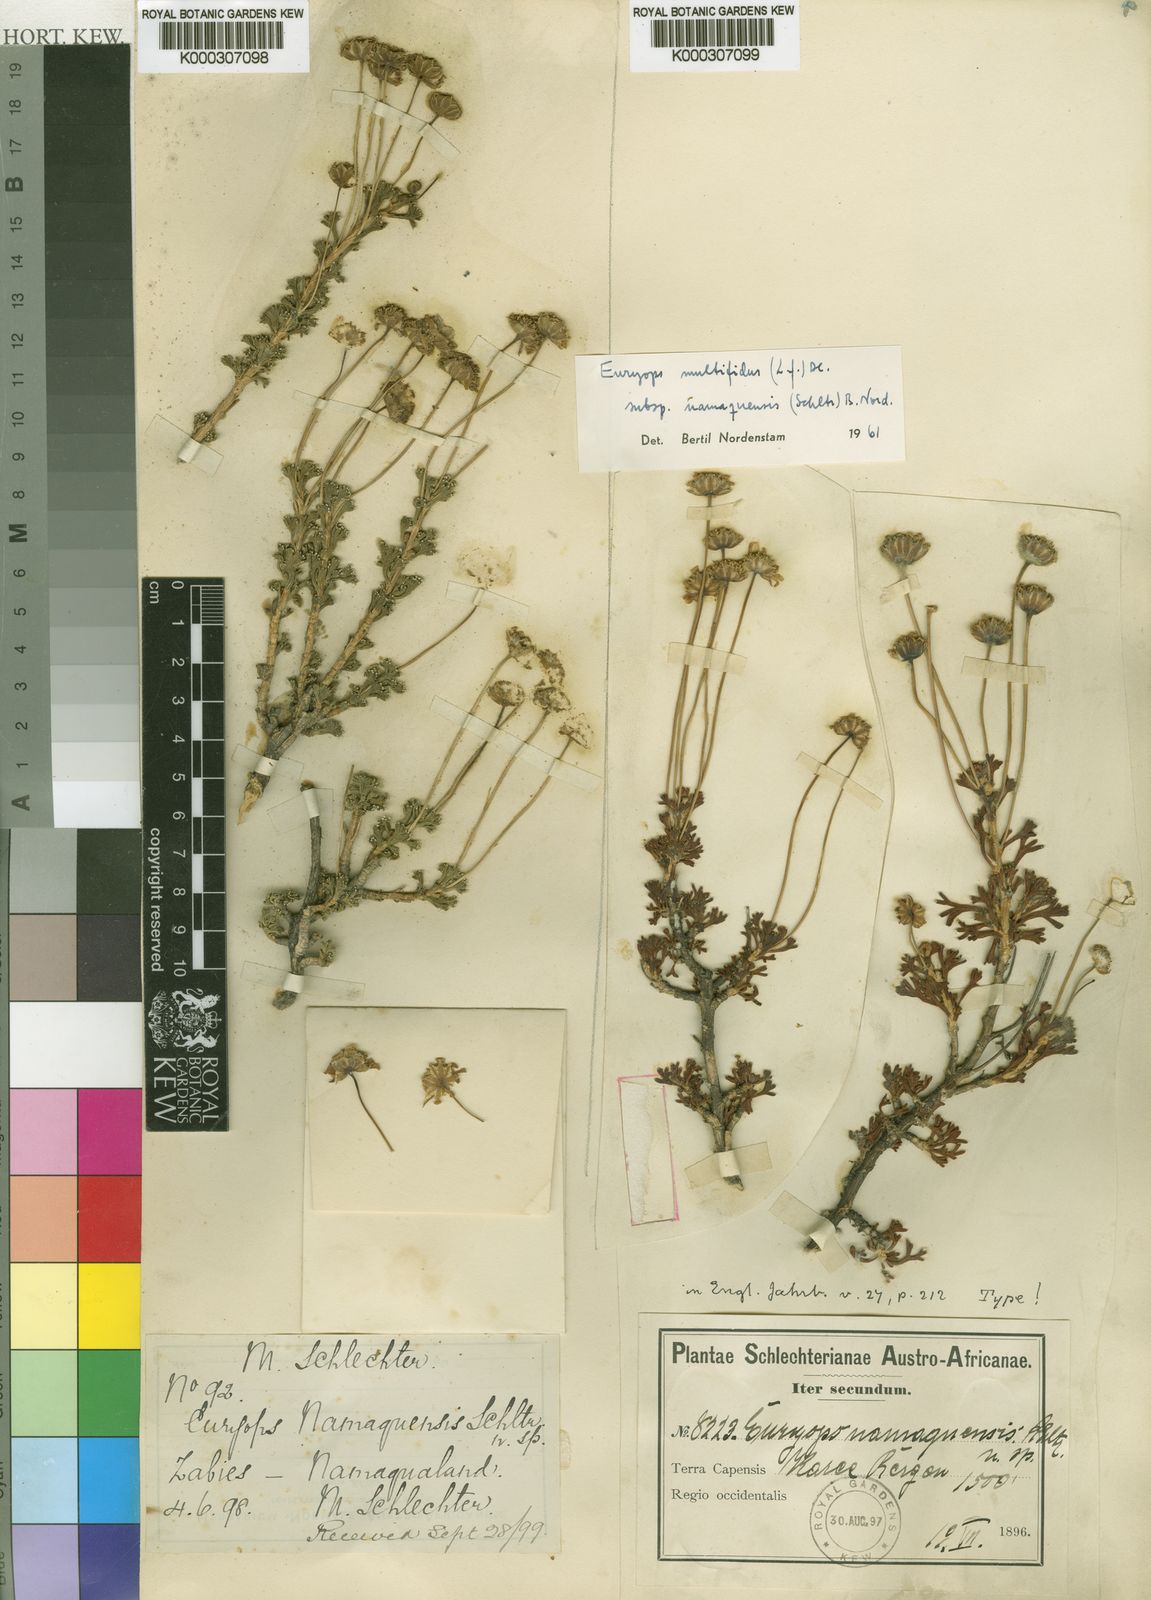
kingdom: Plantae
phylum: Tracheophyta
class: Magnoliopsida
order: Asterales
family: Asteraceae
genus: Euryops
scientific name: Euryops multifidus
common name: Hawk's eye
